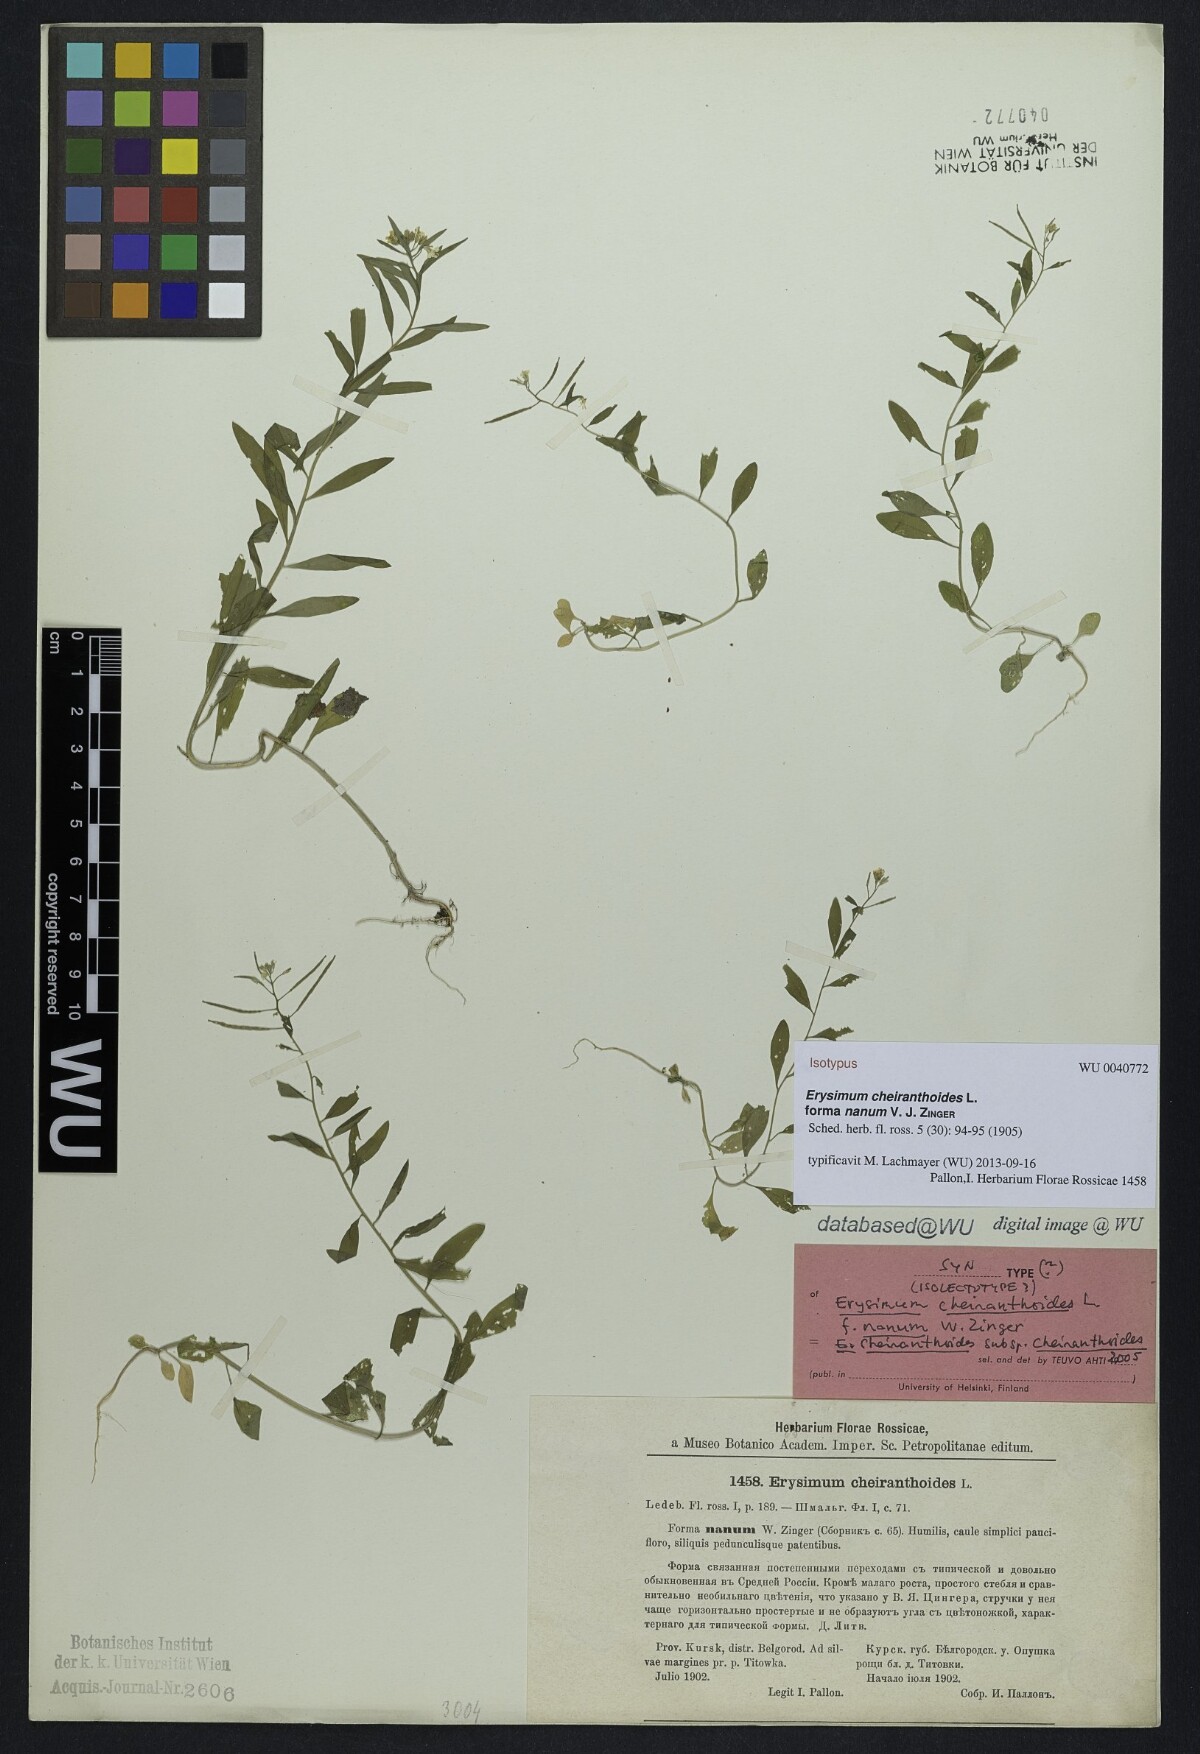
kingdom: Plantae
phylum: Tracheophyta
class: Magnoliopsida
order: Brassicales
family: Brassicaceae
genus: Erysimum
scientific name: Erysimum cheiranthoides
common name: Treacle mustard
